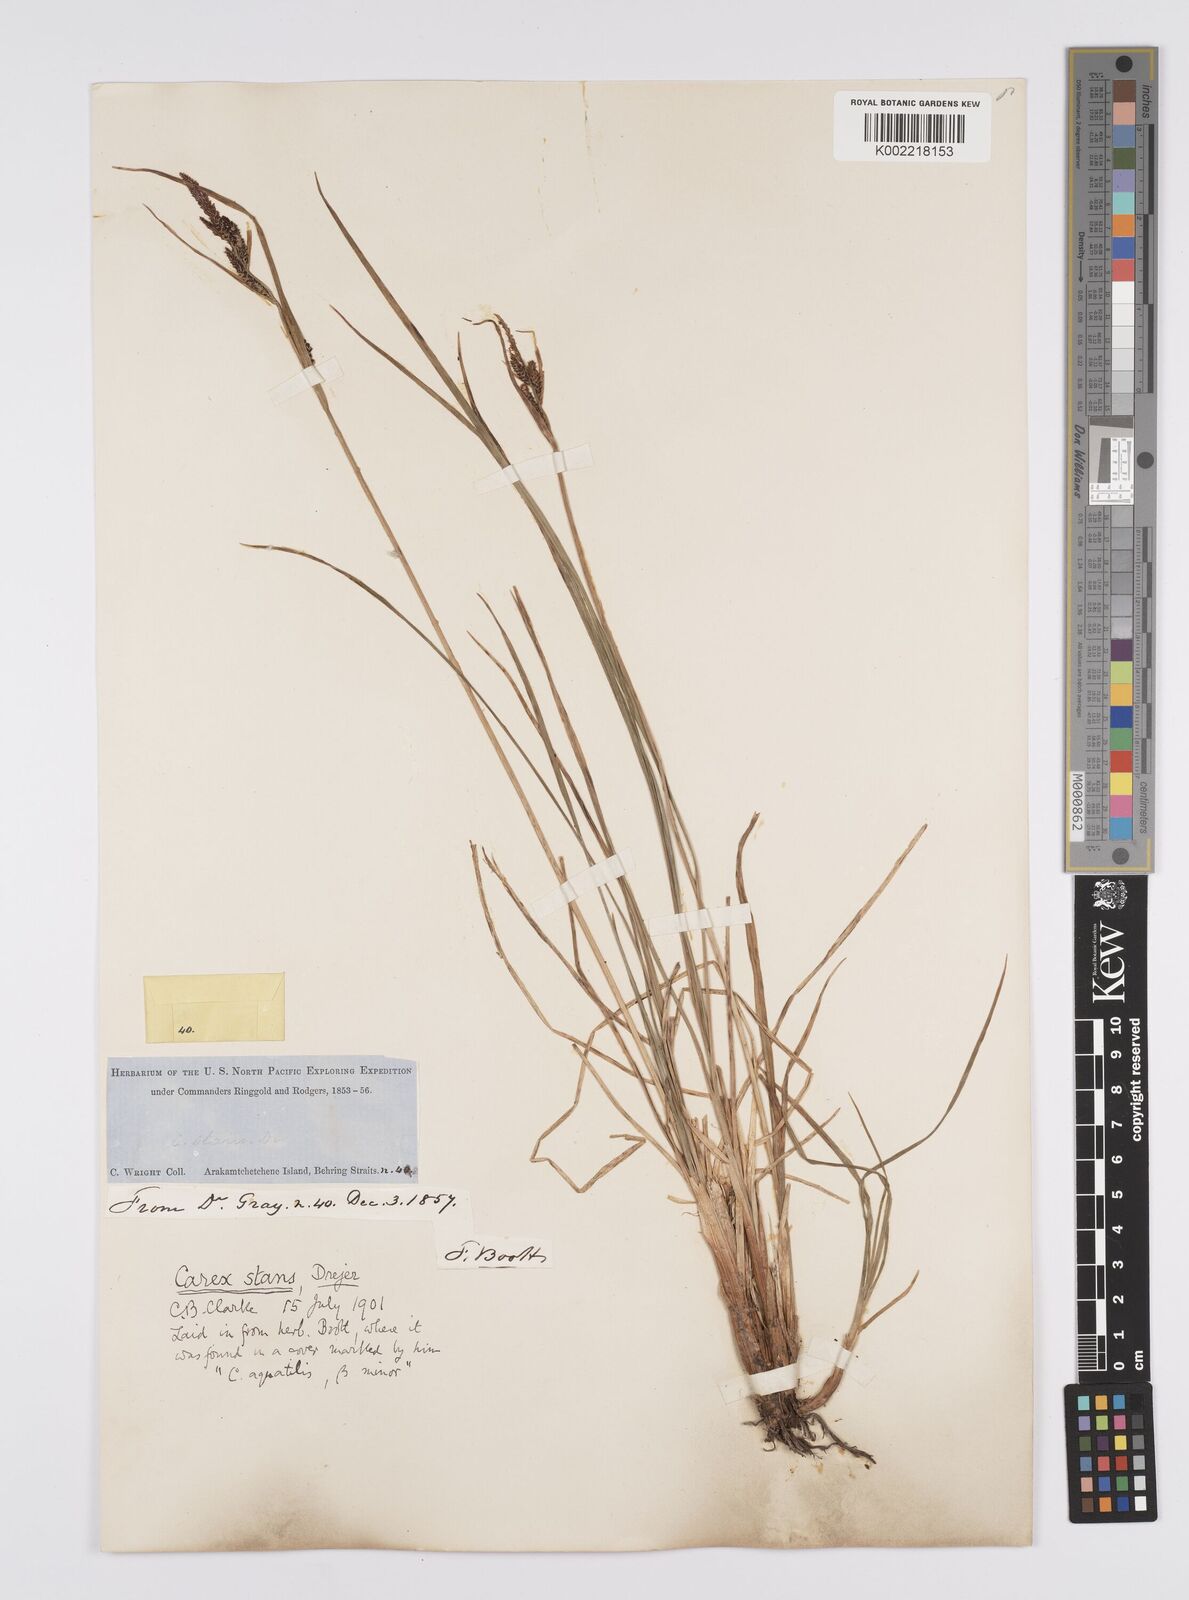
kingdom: Plantae
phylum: Tracheophyta
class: Liliopsida
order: Poales
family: Cyperaceae
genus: Carex
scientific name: Carex microsaccus
